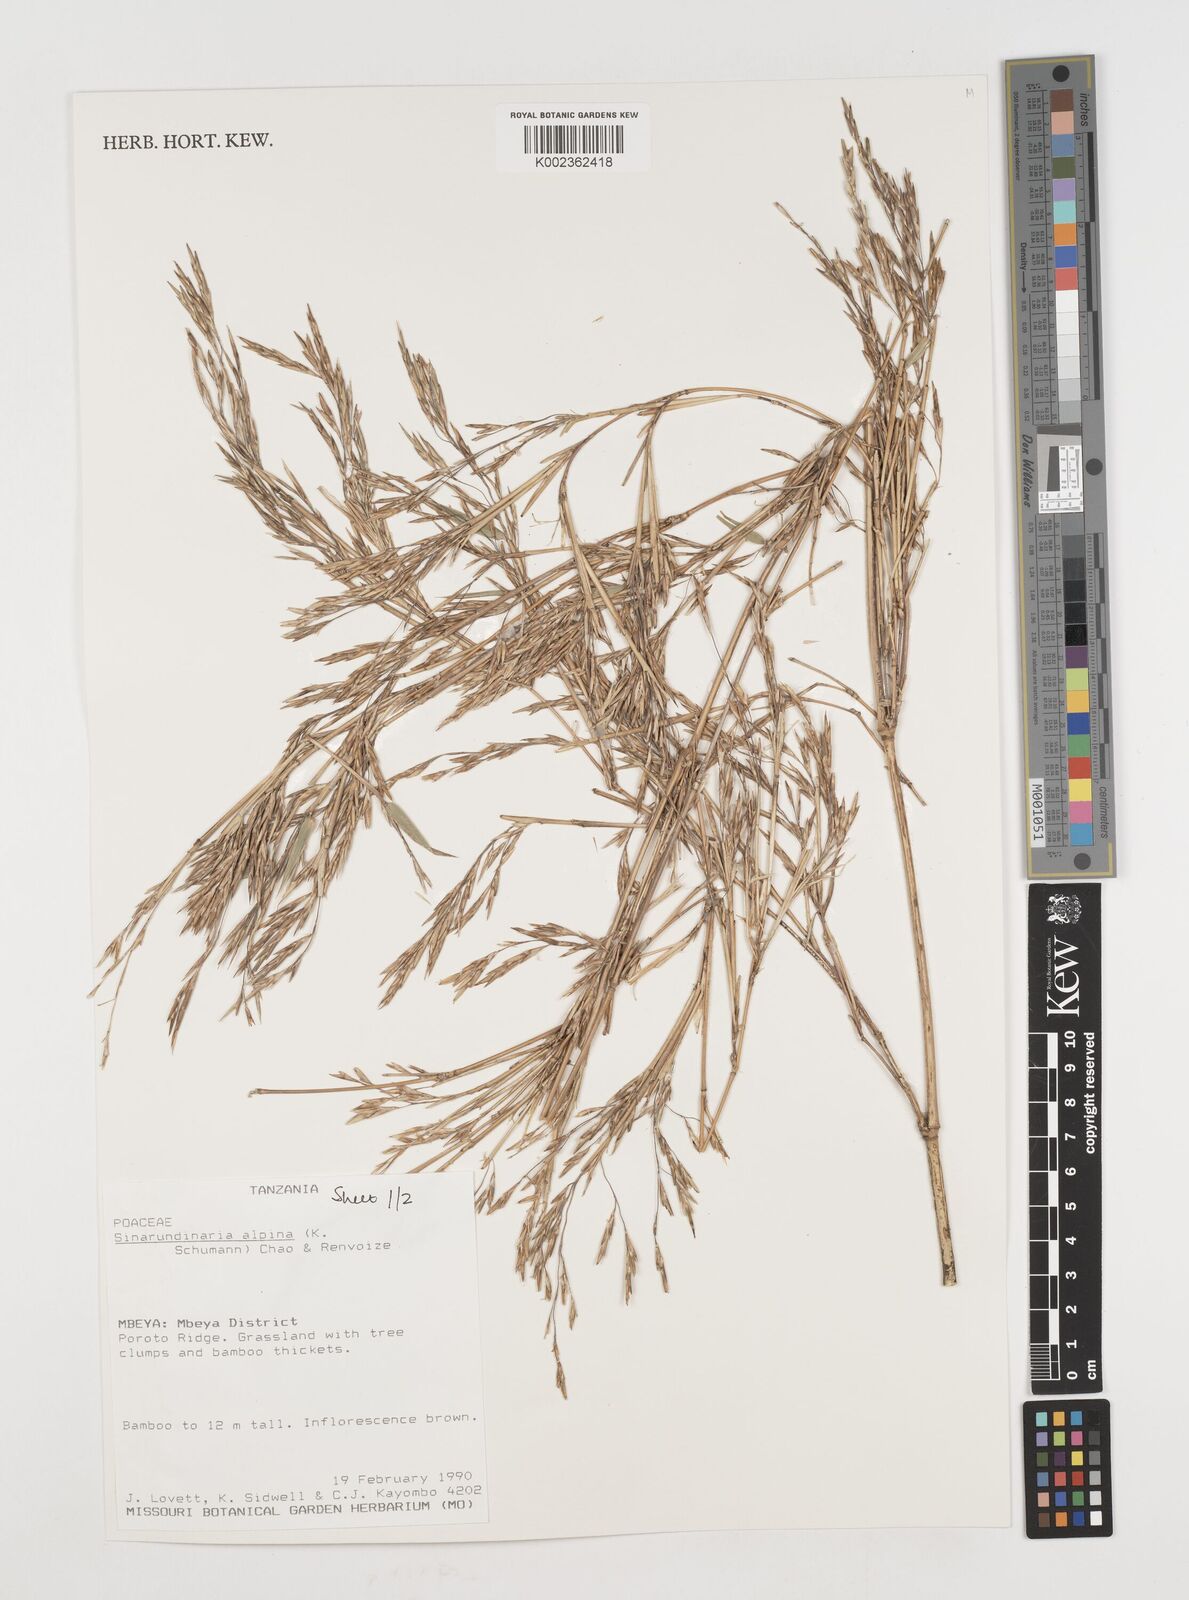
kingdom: Plantae
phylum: Tracheophyta
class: Liliopsida
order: Poales
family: Poaceae
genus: Oldeania
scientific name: Oldeania alpina
